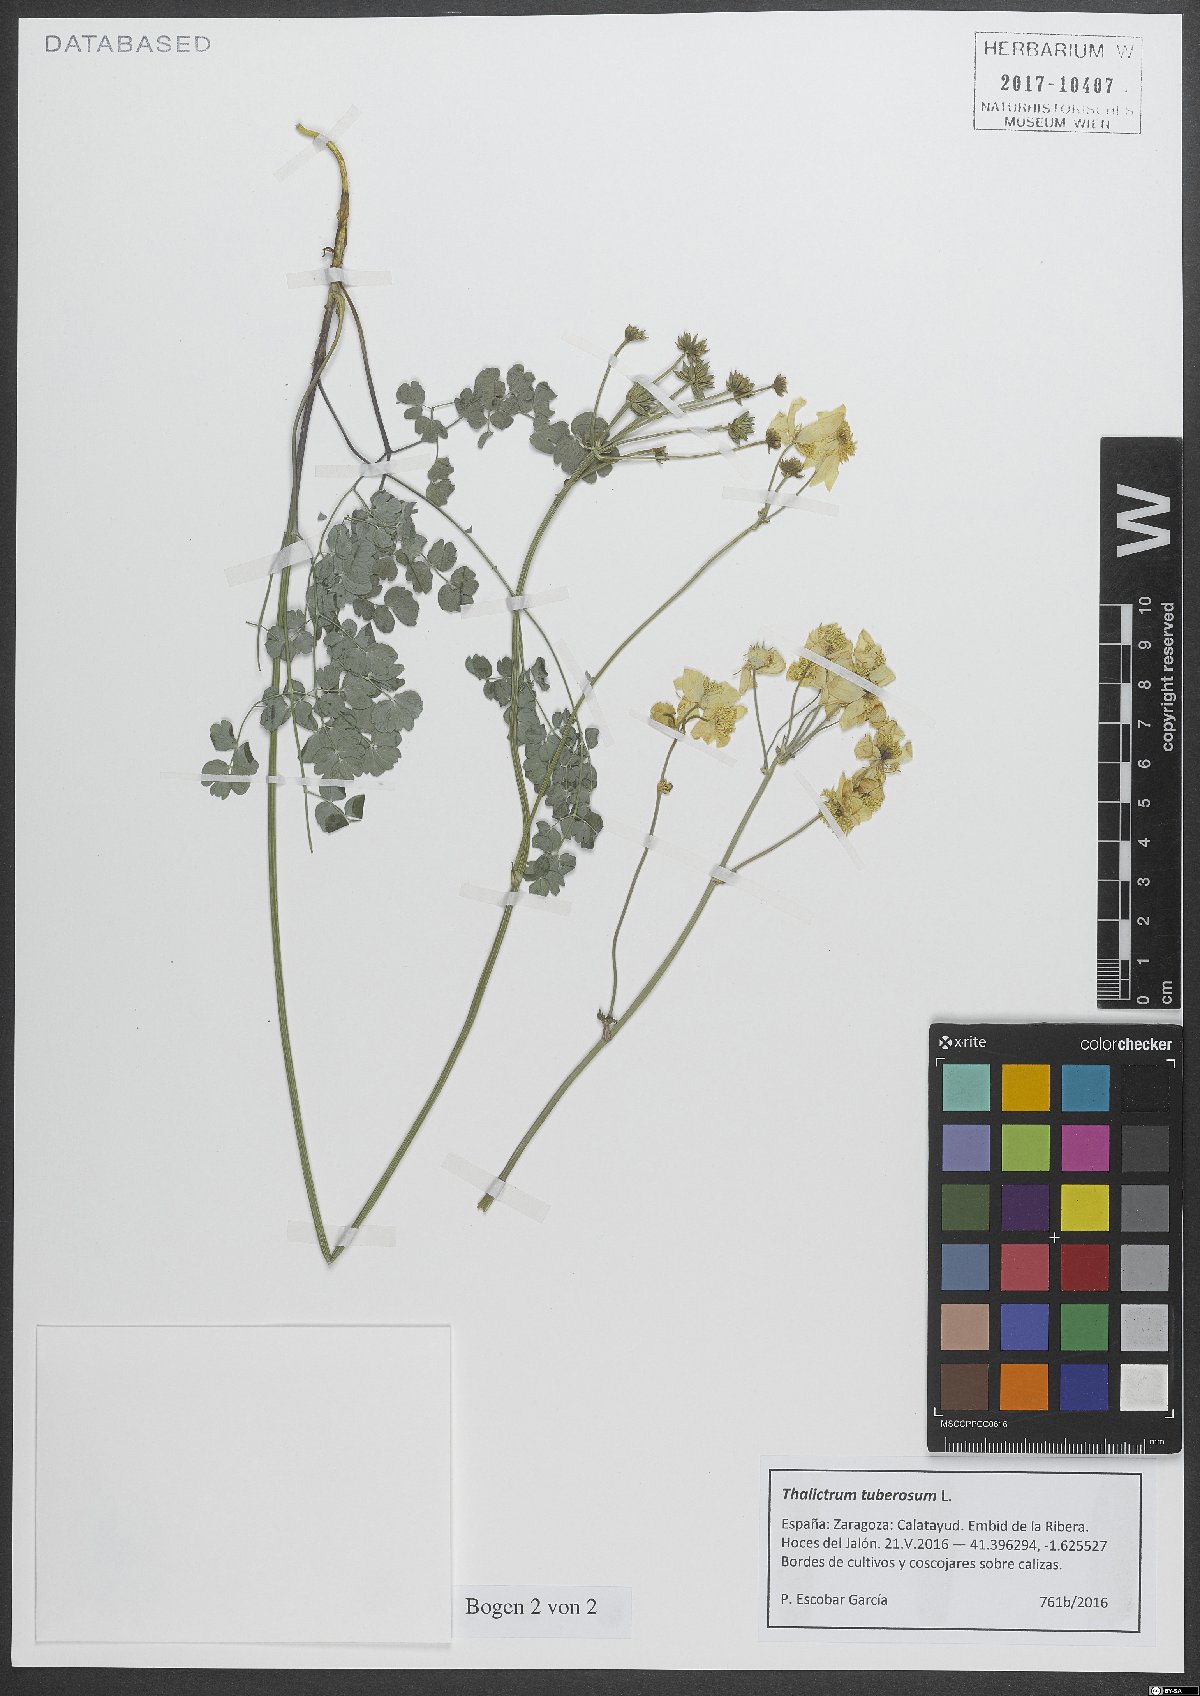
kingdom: Plantae
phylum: Tracheophyta
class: Magnoliopsida
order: Ranunculales
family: Ranunculaceae
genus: Thalictrum
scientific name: Thalictrum tuberosum
